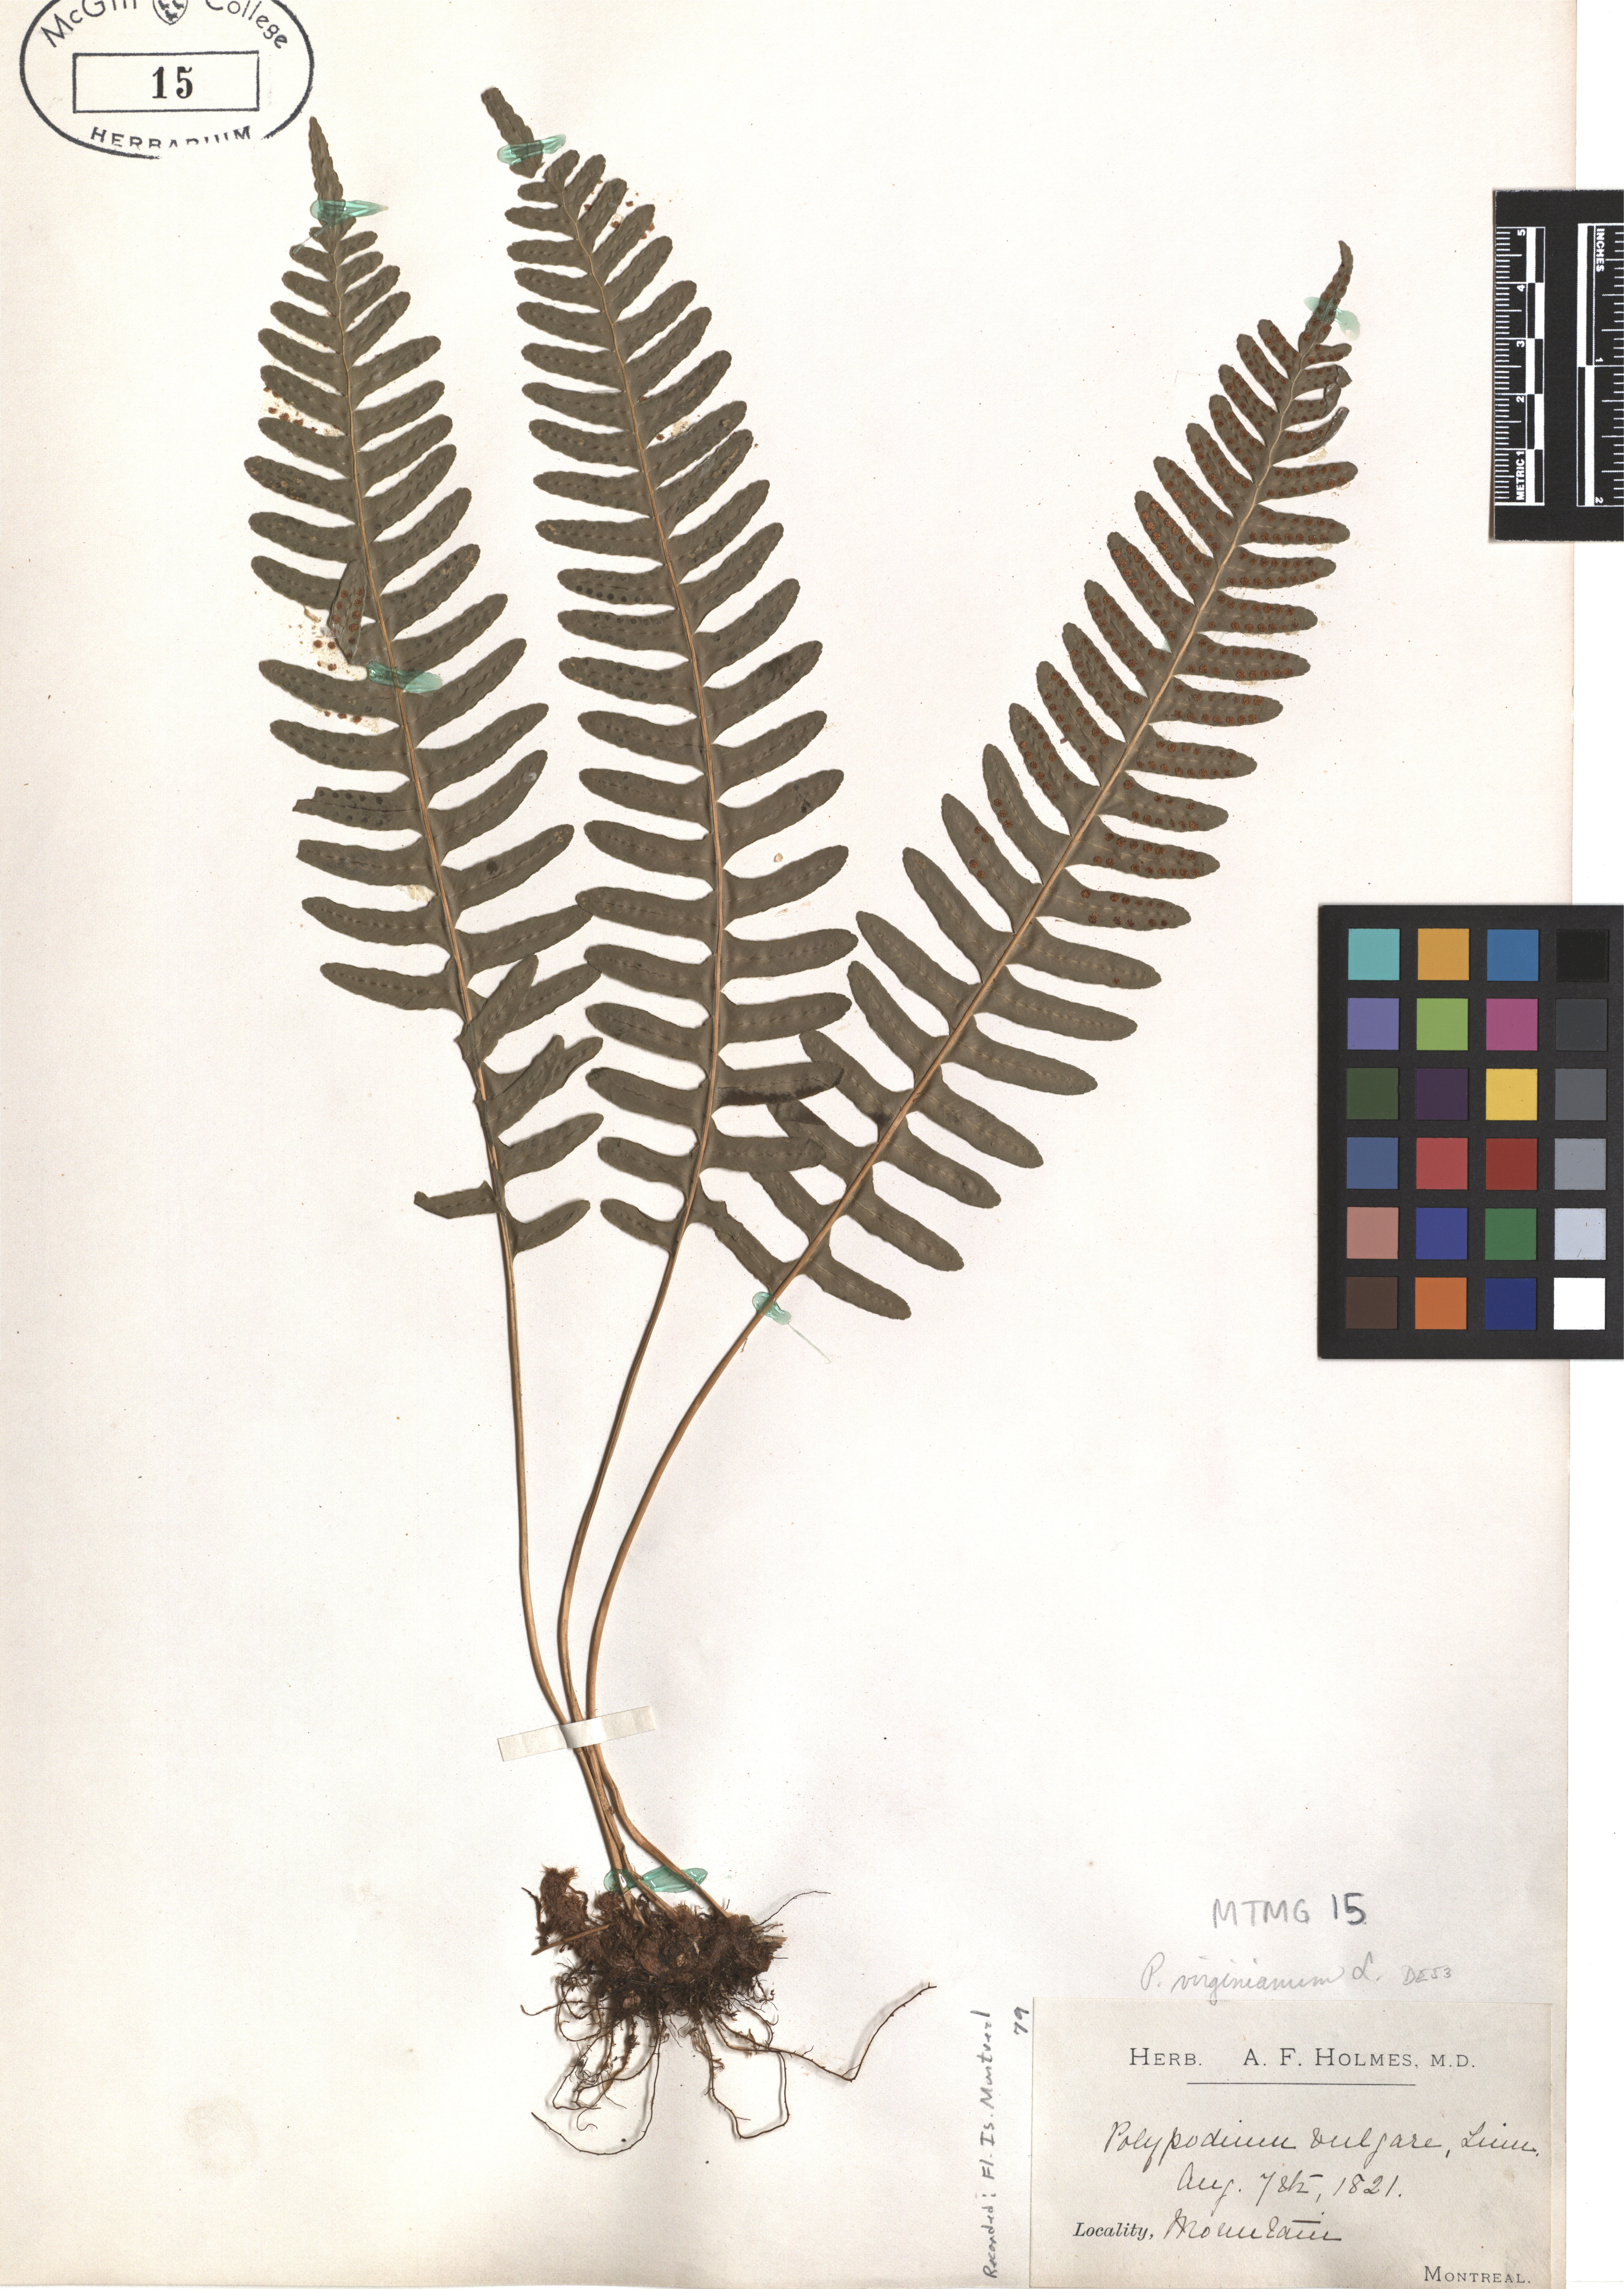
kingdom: Plantae
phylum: Tracheophyta
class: Polypodiopsida
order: Polypodiales
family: Polypodiaceae
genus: Polypodium
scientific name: Polypodium virginianum
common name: American wall fern
